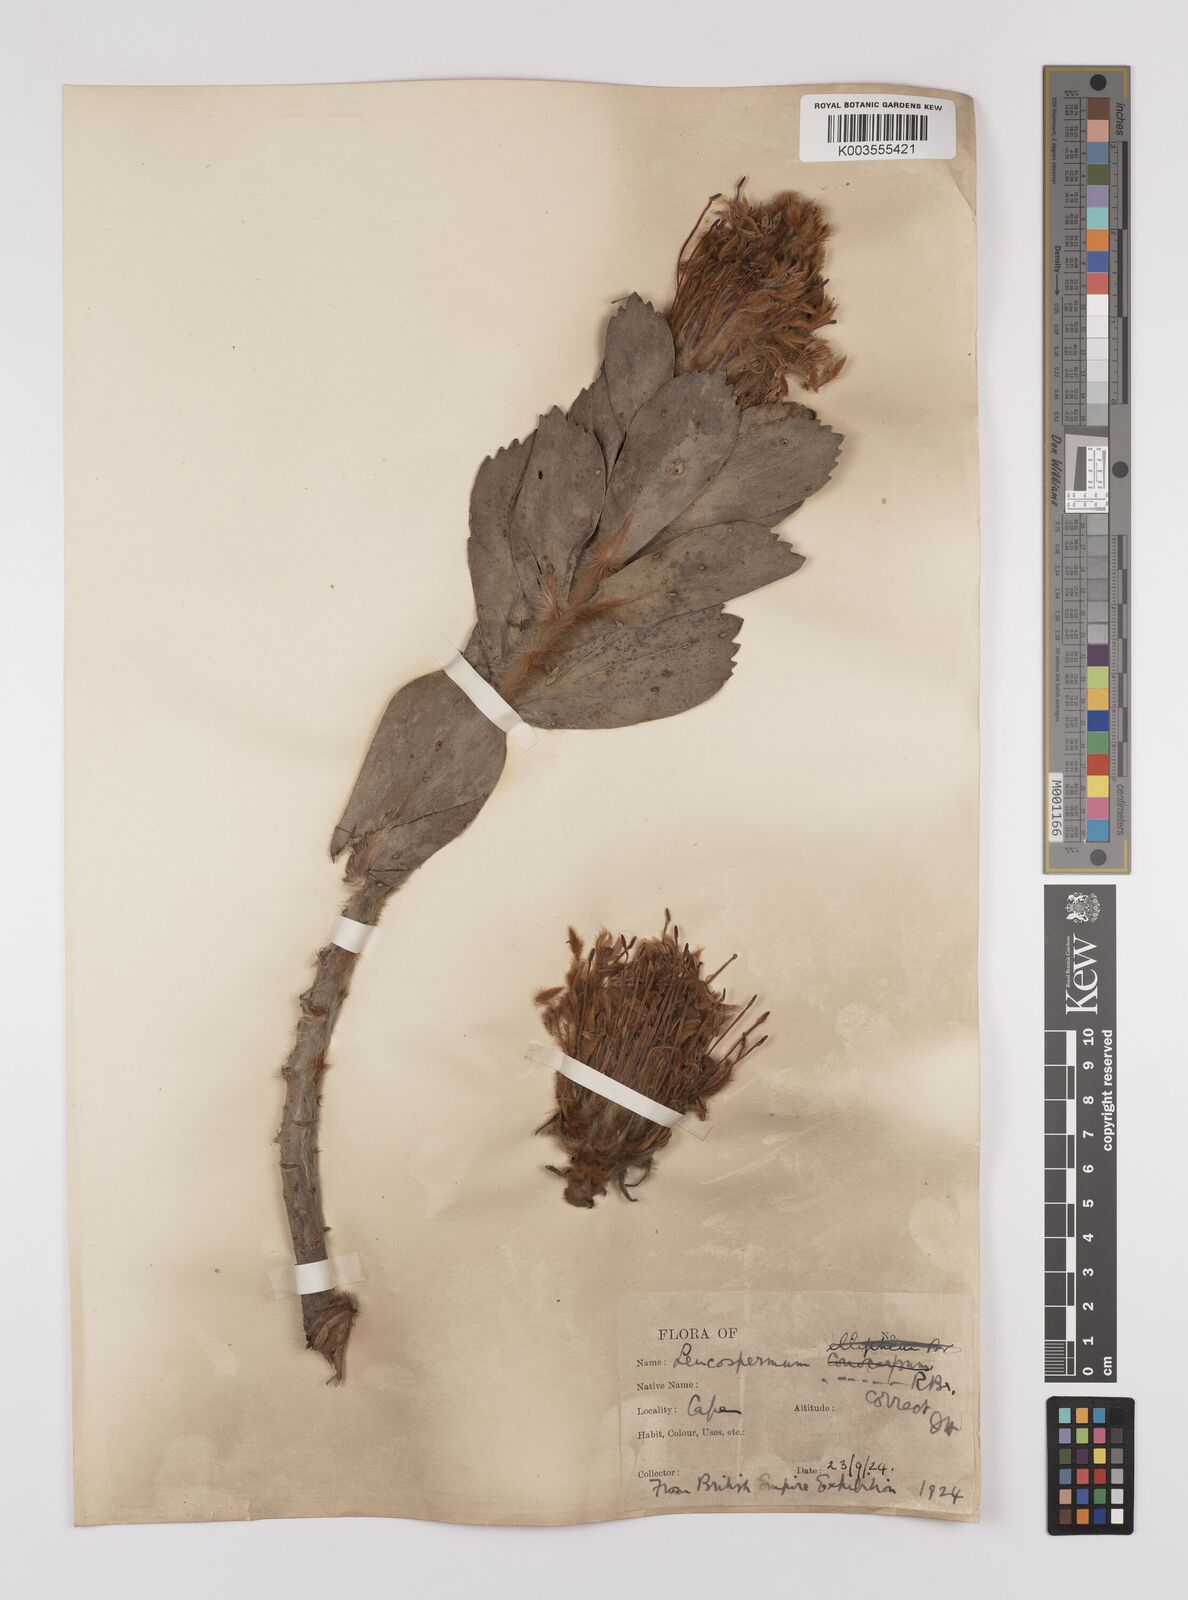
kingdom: Plantae
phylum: Tracheophyta
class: Magnoliopsida
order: Proteales
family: Proteaceae
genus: Leucospermum
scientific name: Leucospermum conocarpodendron
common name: Tree pincushion
